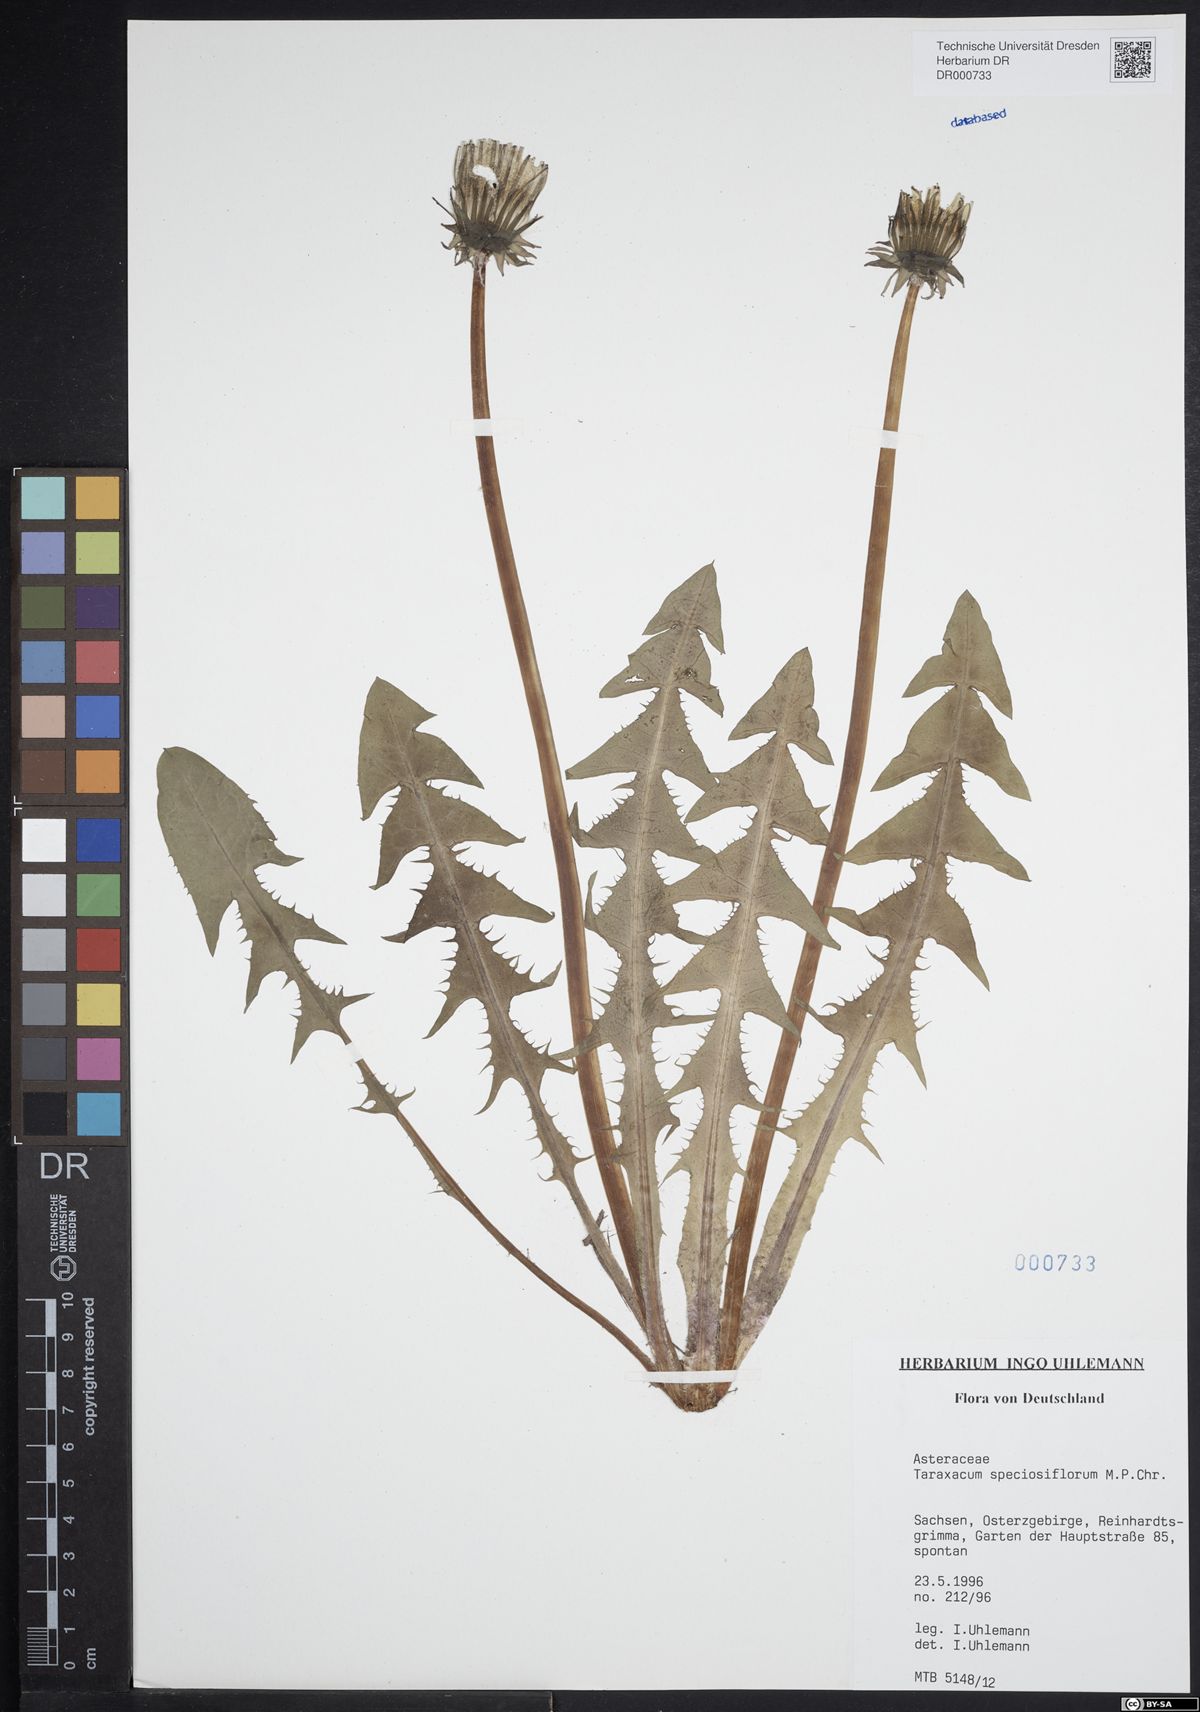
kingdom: Plantae
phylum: Tracheophyta
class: Magnoliopsida
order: Asterales
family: Asteraceae
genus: Taraxacum
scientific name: Taraxacum speciosiflorum
